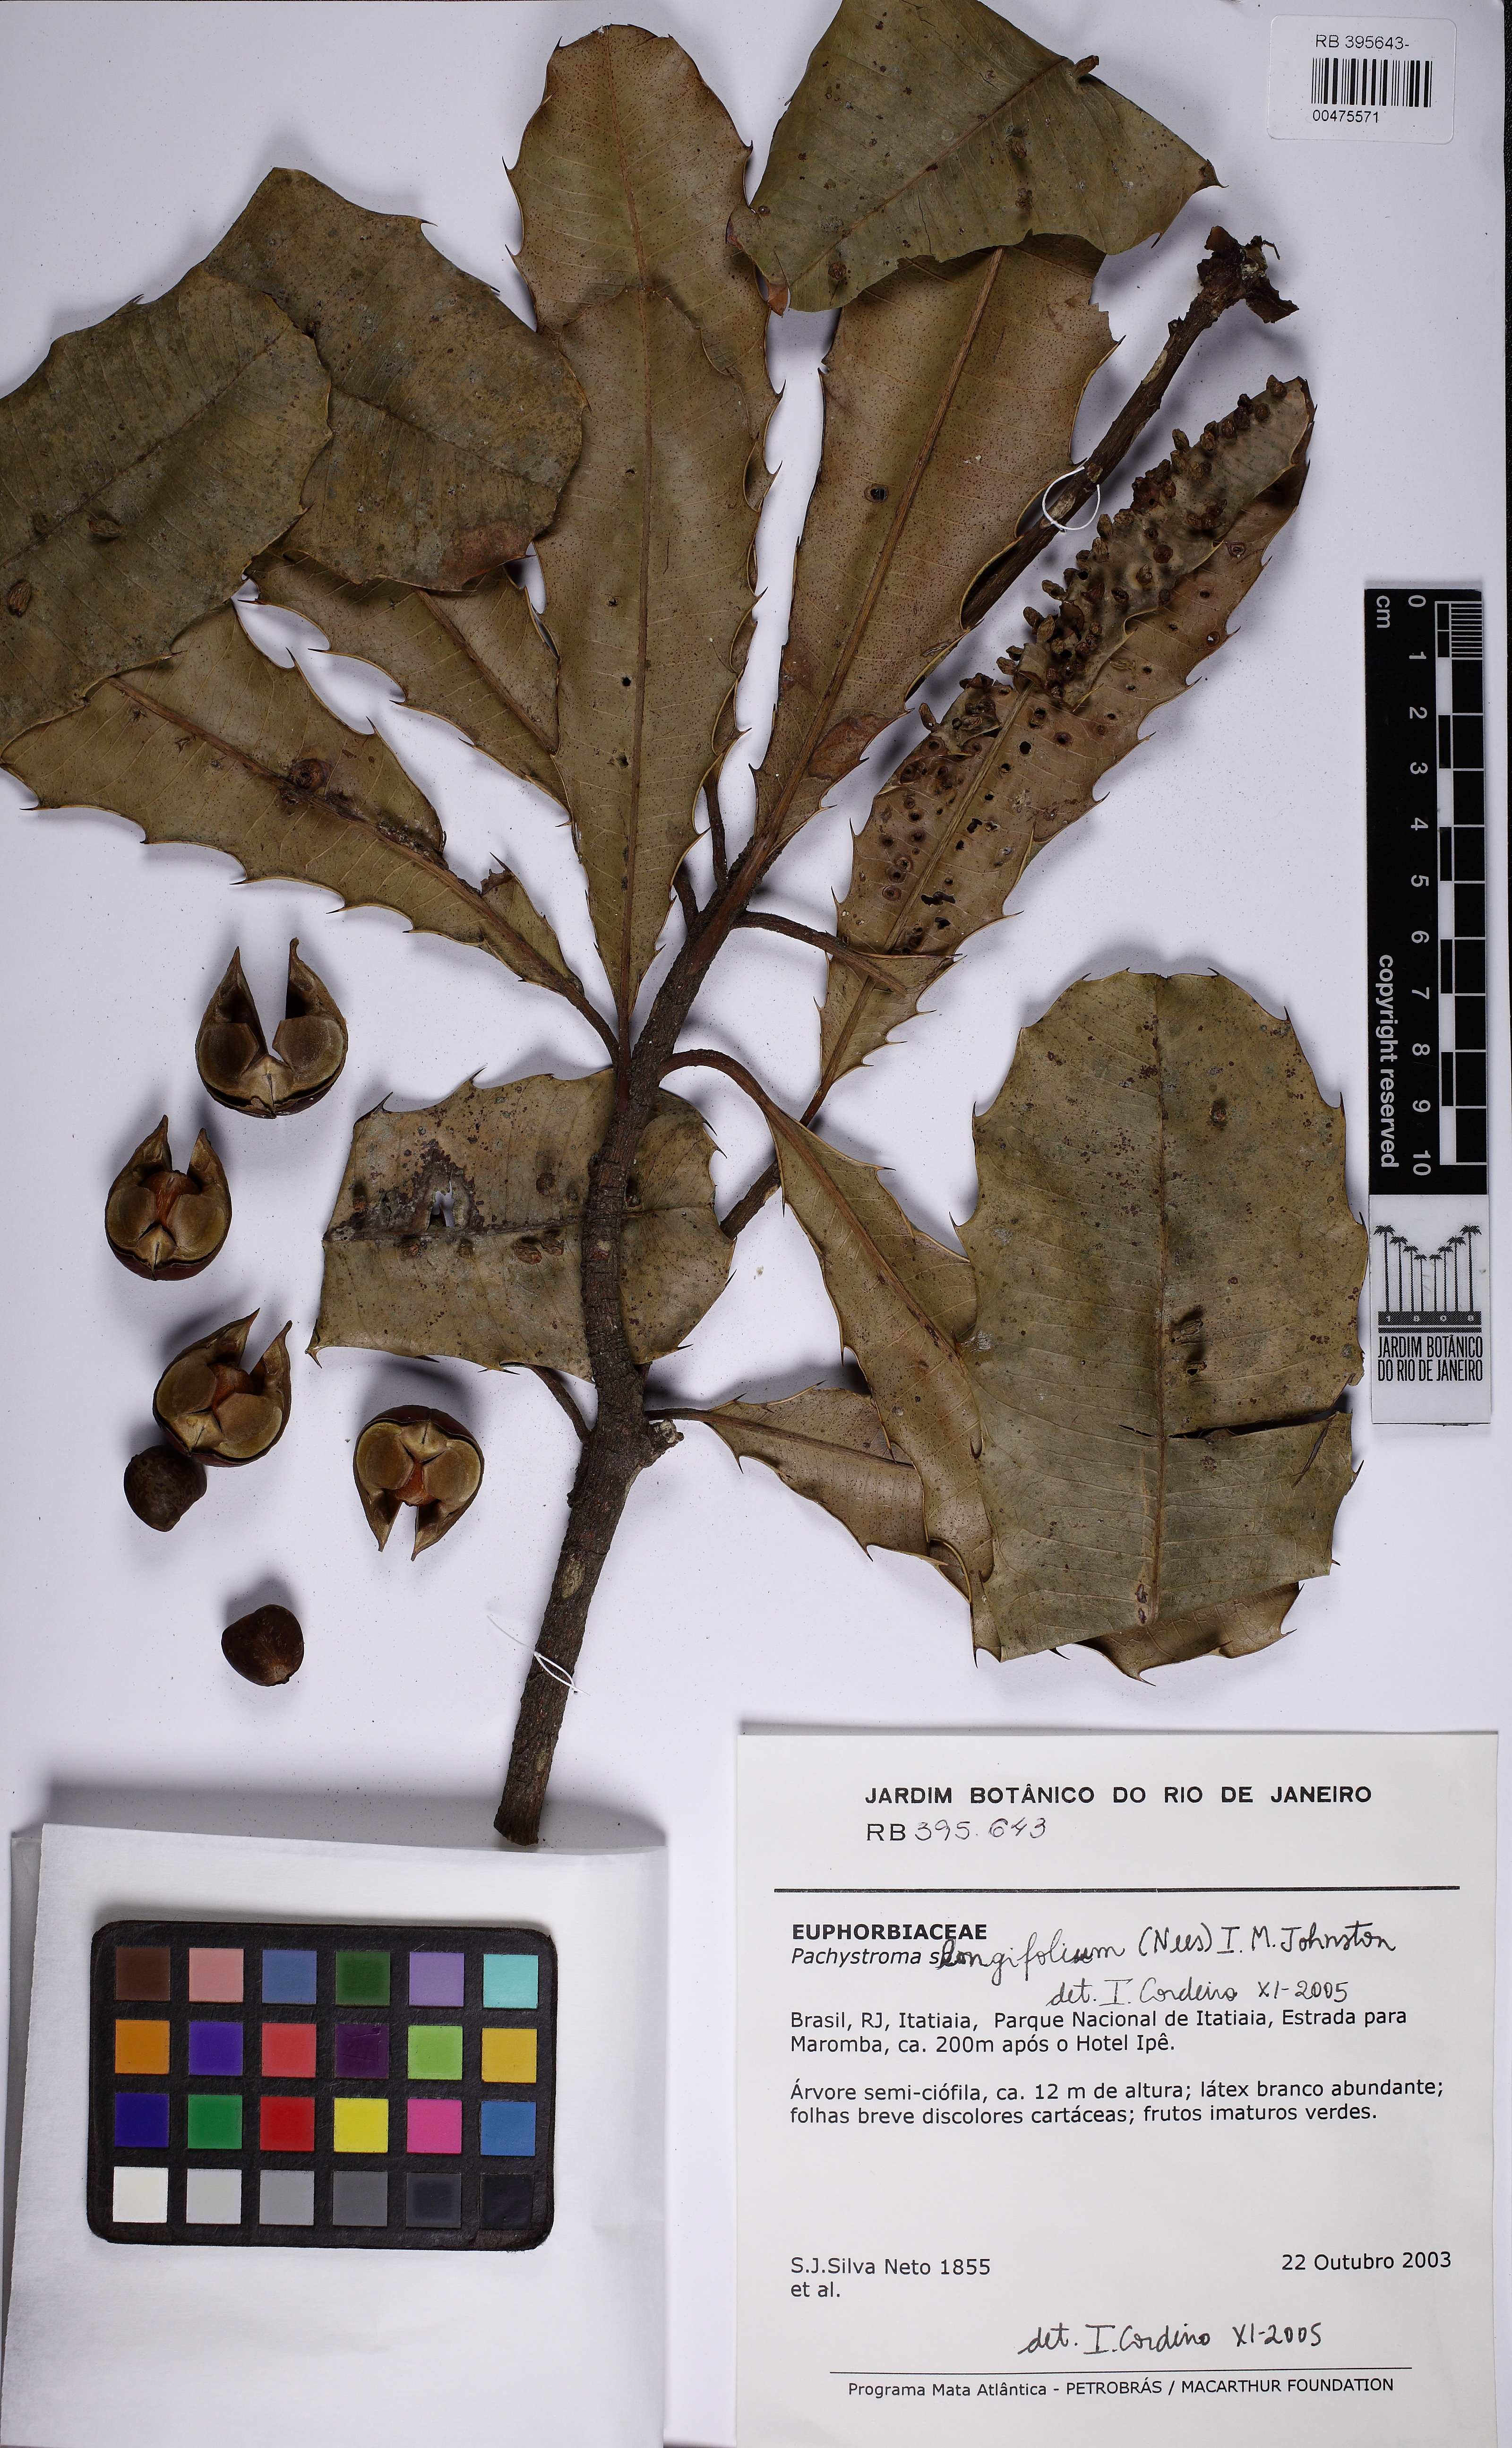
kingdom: Plantae
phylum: Tracheophyta
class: Magnoliopsida
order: Malpighiales
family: Euphorbiaceae
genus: Pachystroma
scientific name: Pachystroma longifolium
